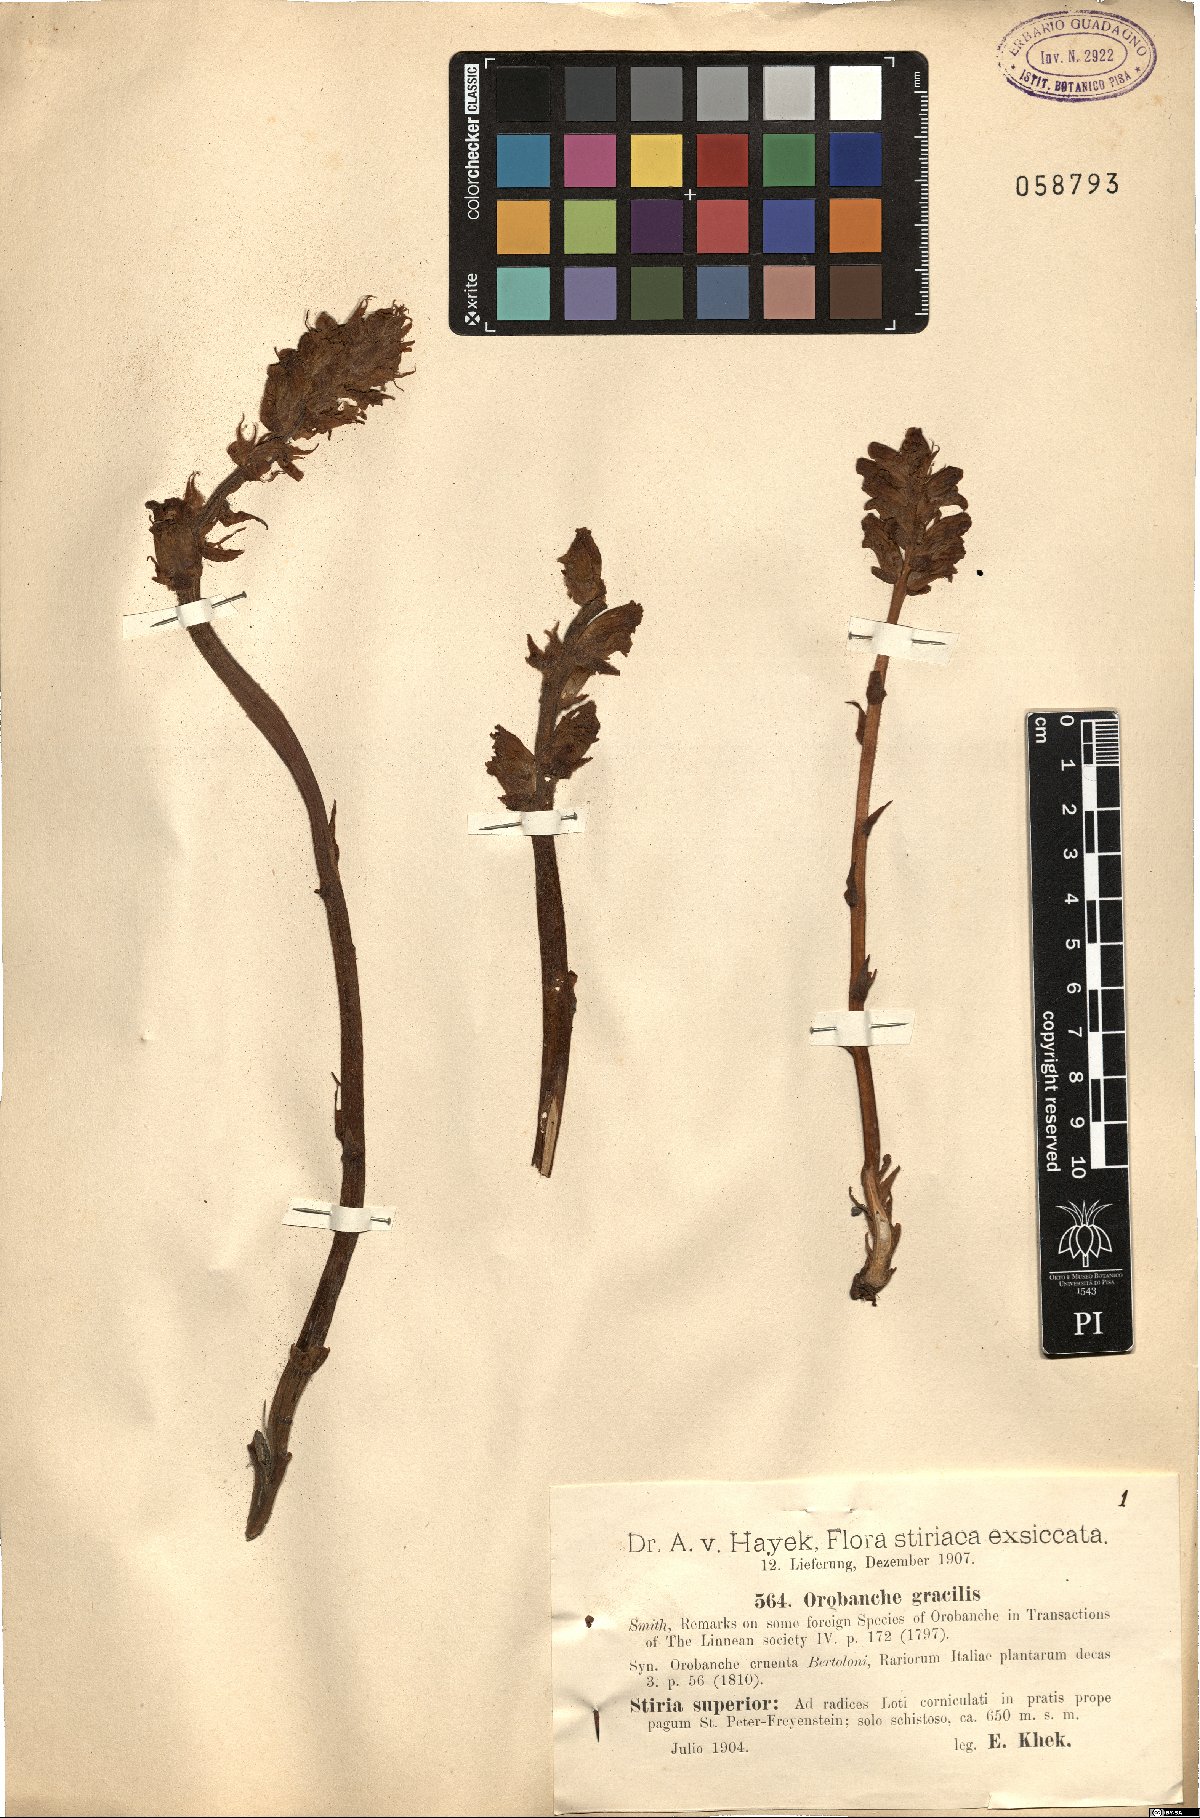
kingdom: Plantae
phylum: Tracheophyta
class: Magnoliopsida
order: Lamiales
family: Orobanchaceae
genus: Orobanche
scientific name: Orobanche gracilis
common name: Slender broomrape
